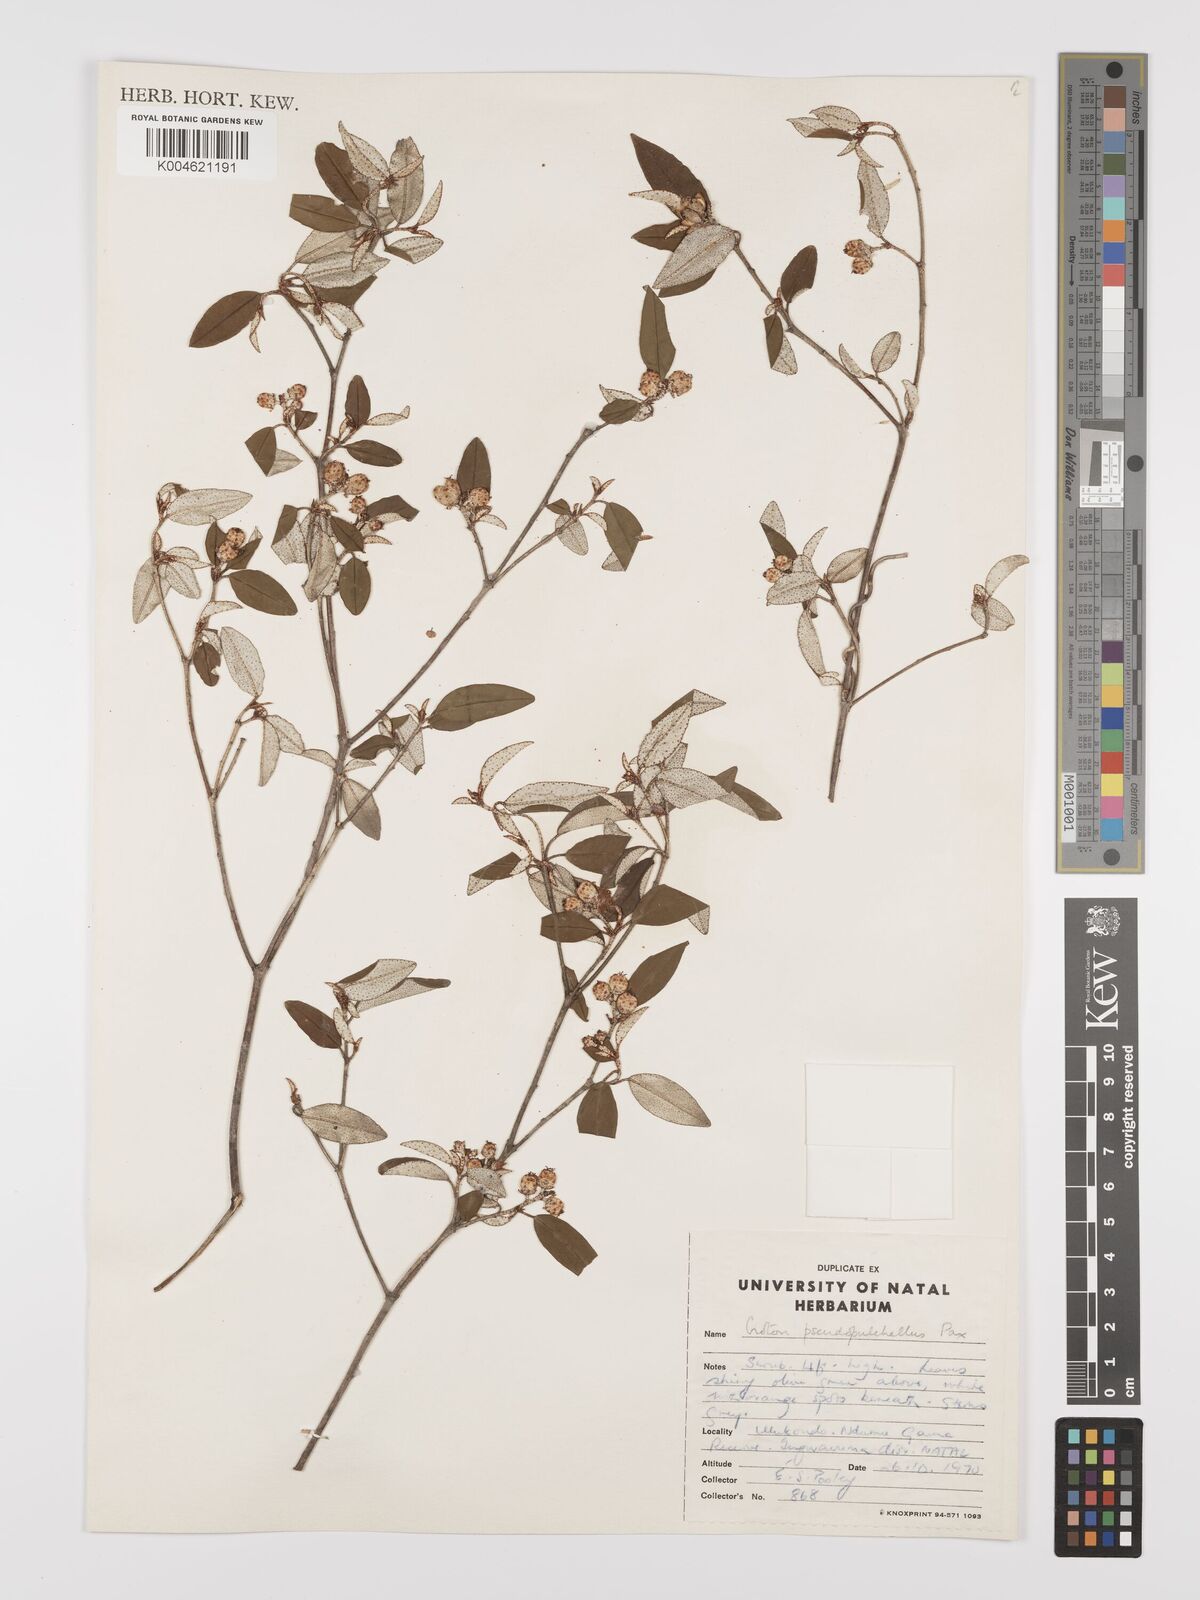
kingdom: Plantae
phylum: Tracheophyta
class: Magnoliopsida
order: Malpighiales
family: Euphorbiaceae
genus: Croton
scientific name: Croton pseudopulchellus
